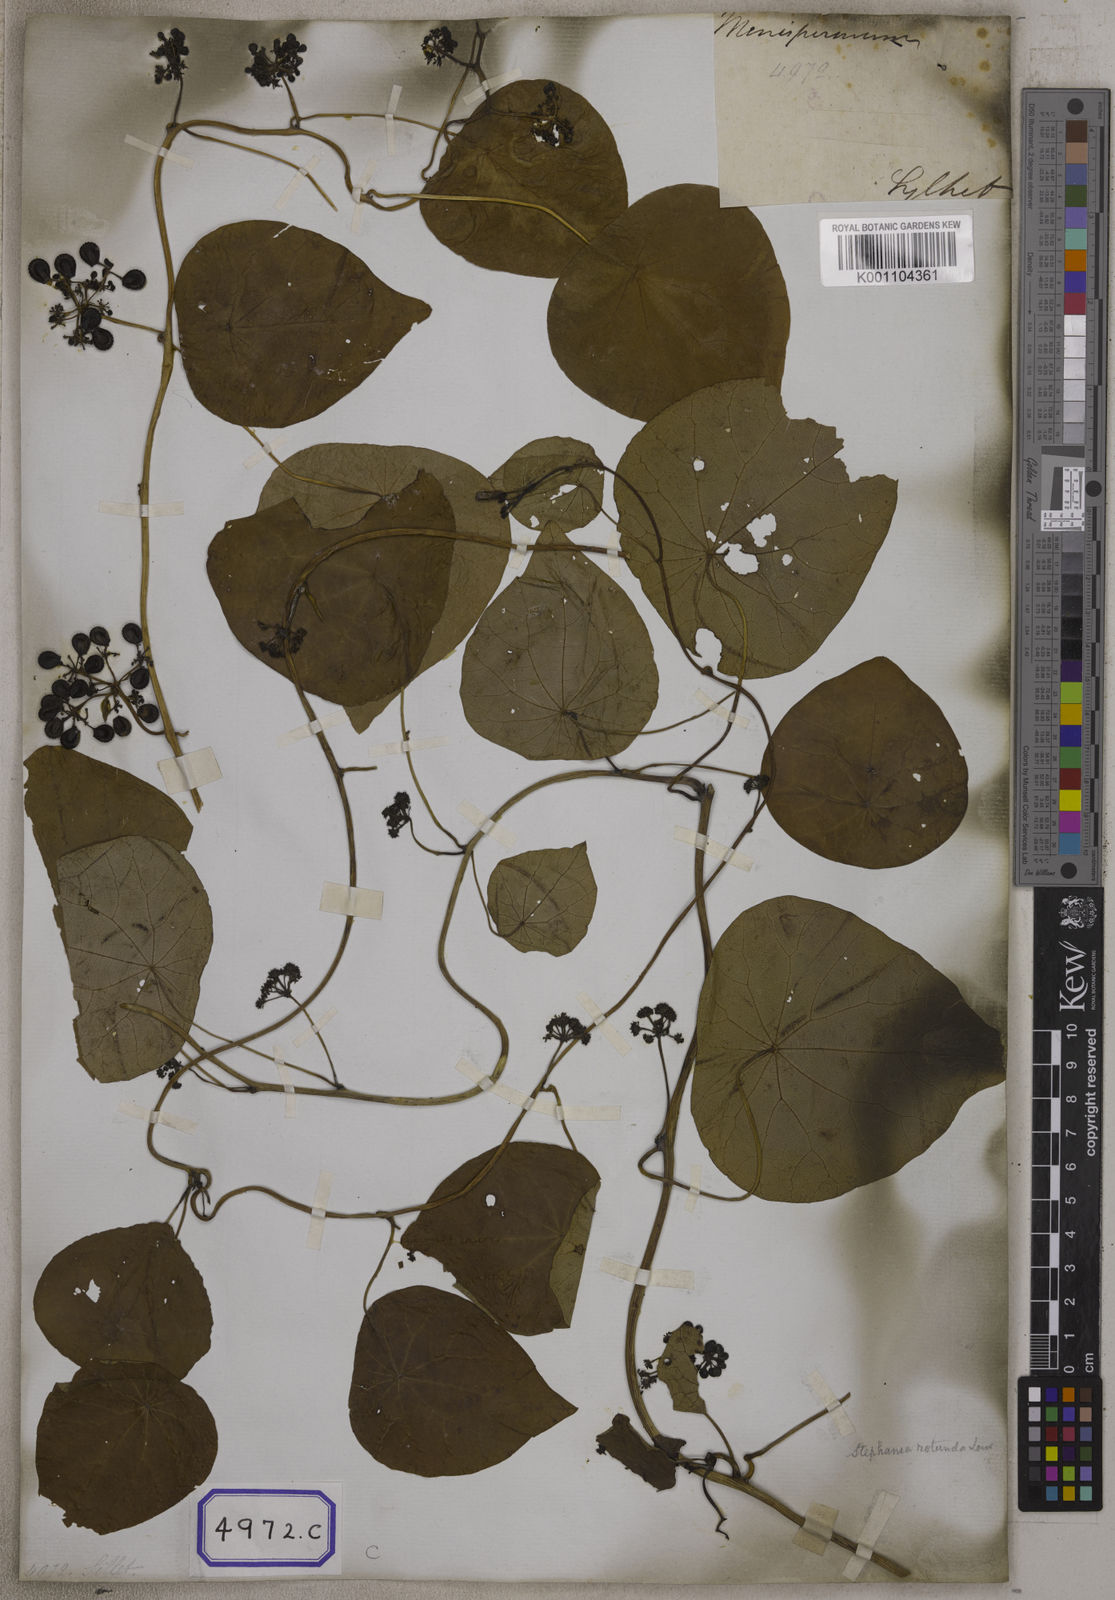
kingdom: Plantae
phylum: Tracheophyta
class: Magnoliopsida
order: Ranunculales
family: Menispermaceae
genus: Stephania
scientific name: Stephania japonica
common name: Snake vine
